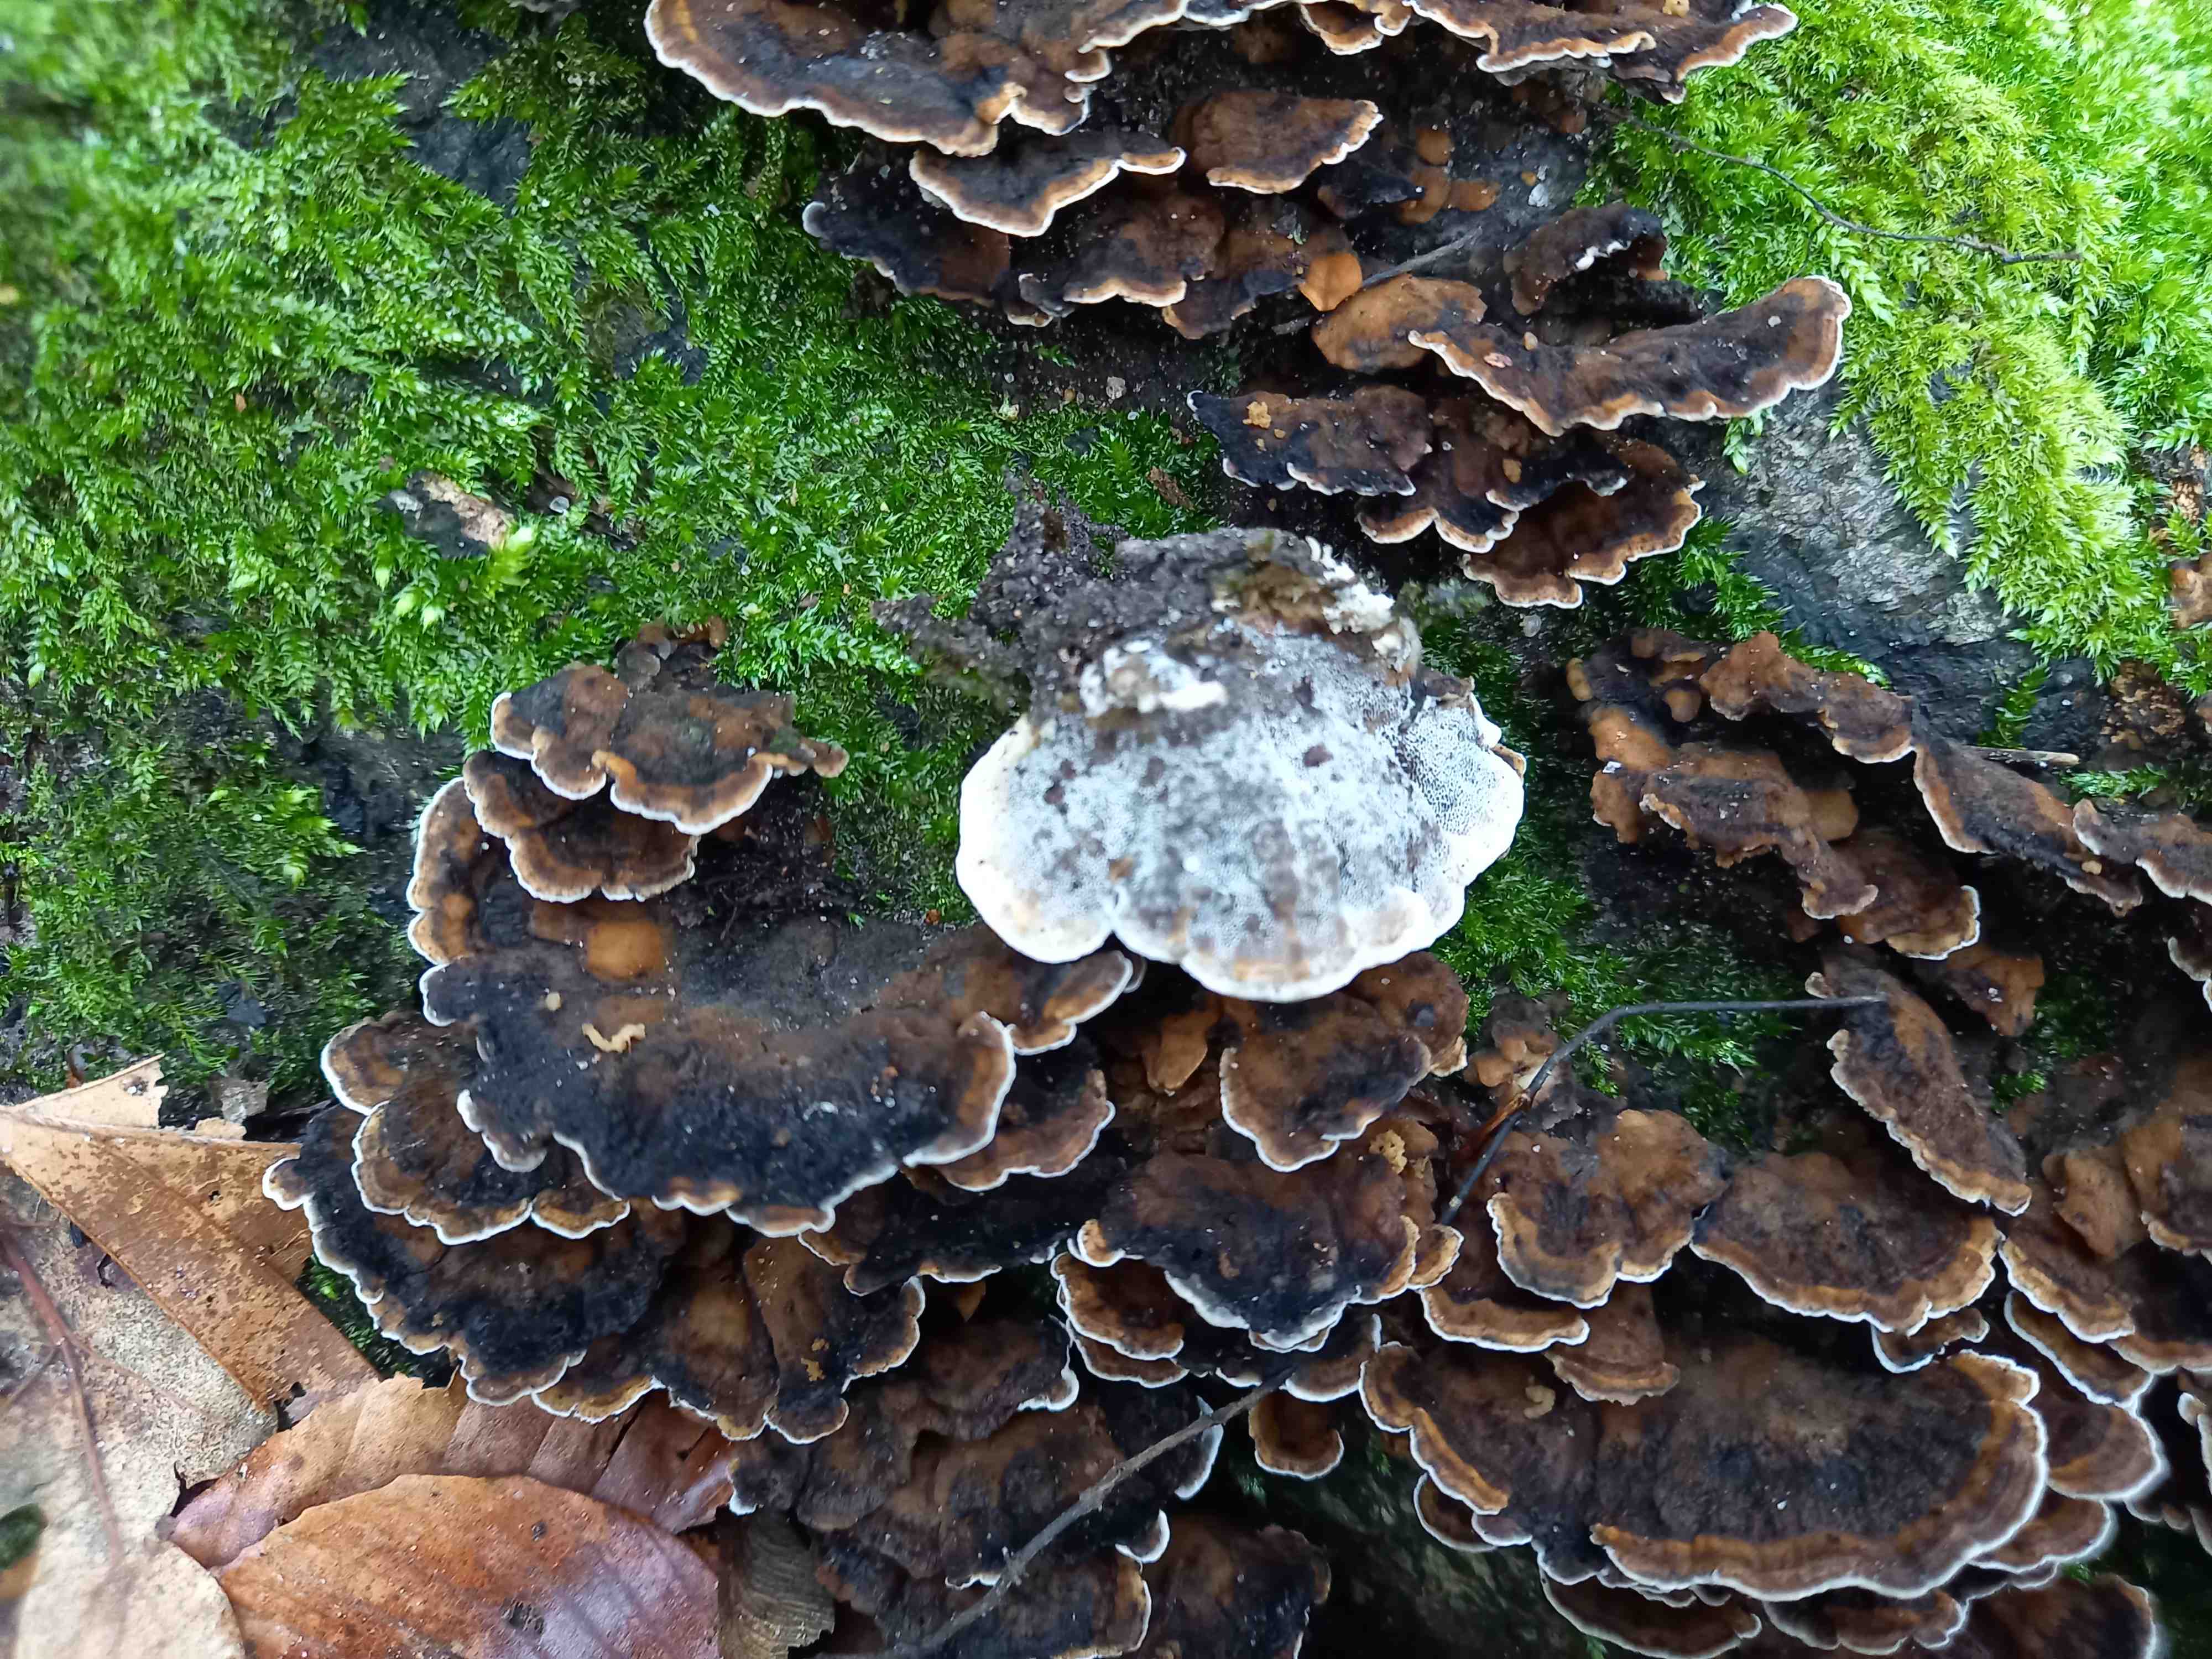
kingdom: Fungi
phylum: Basidiomycota
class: Agaricomycetes
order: Polyporales
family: Phanerochaetaceae
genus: Bjerkandera
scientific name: Bjerkandera adusta
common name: sveden sodporesvamp
